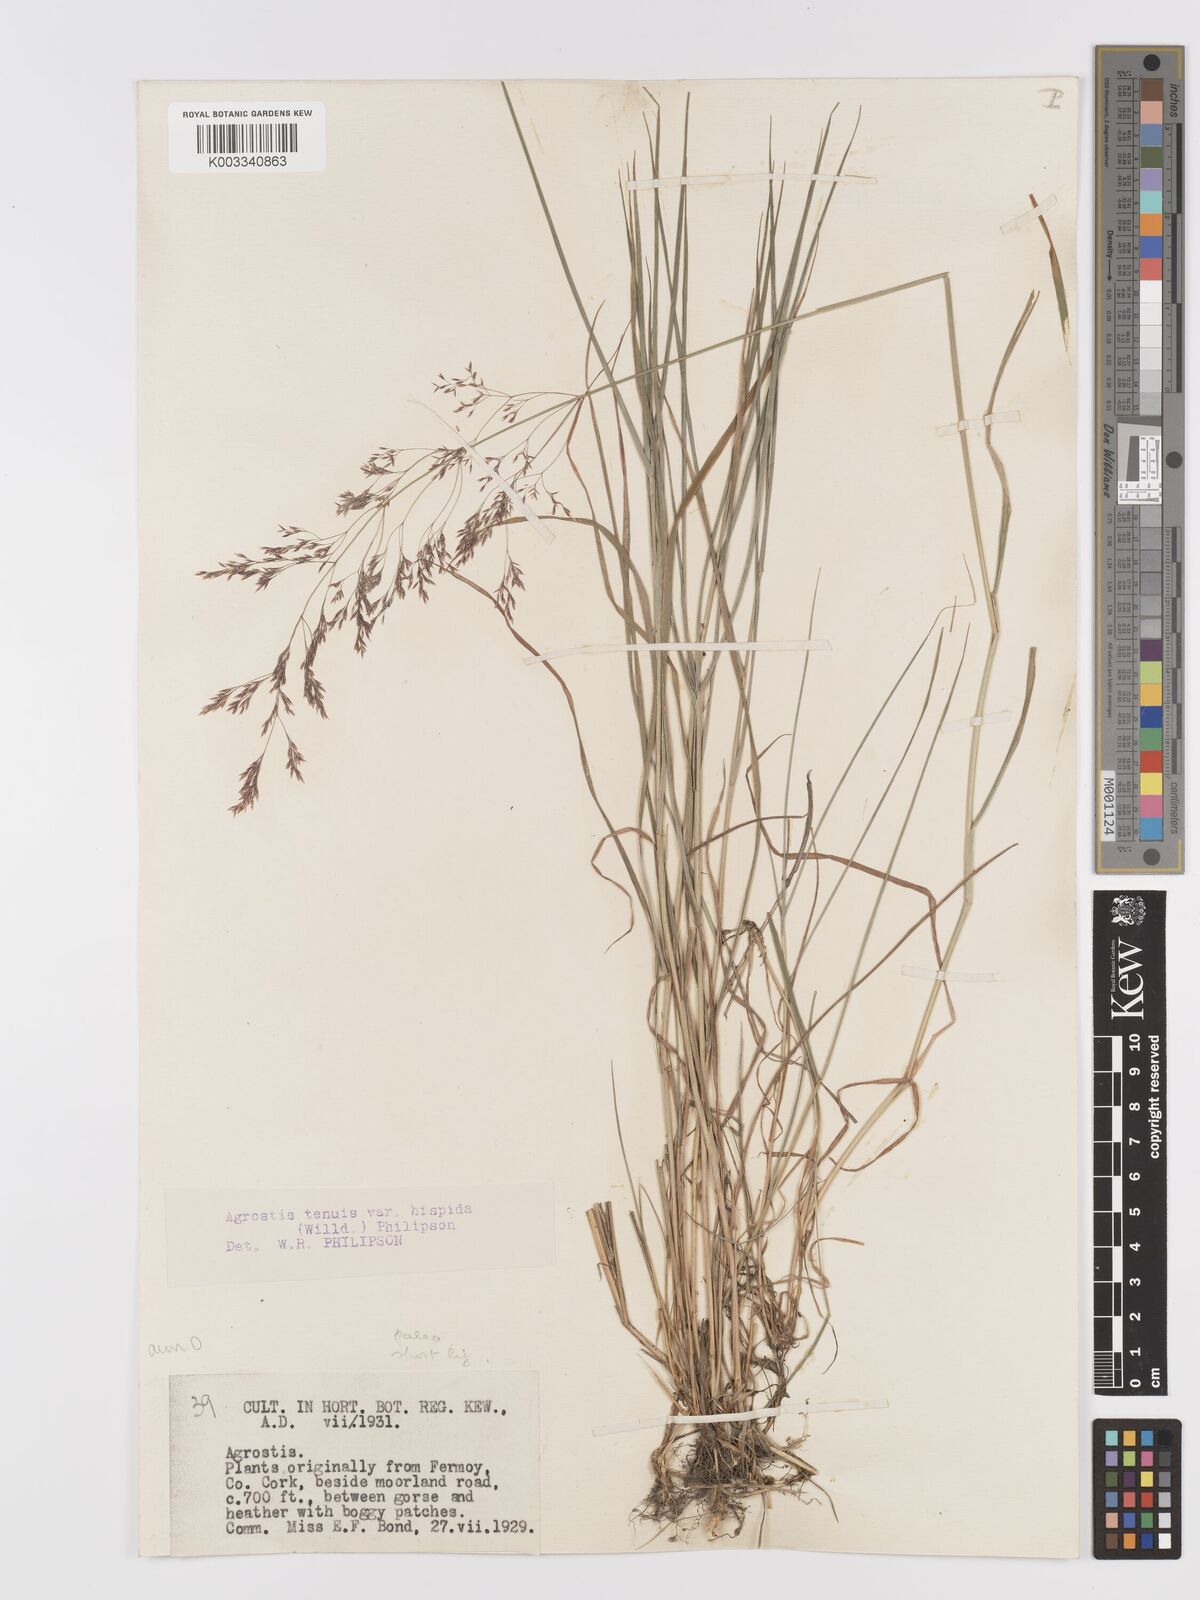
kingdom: Plantae
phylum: Tracheophyta
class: Liliopsida
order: Poales
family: Poaceae
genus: Agrostis
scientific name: Agrostis capillaris
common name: Colonial bentgrass
